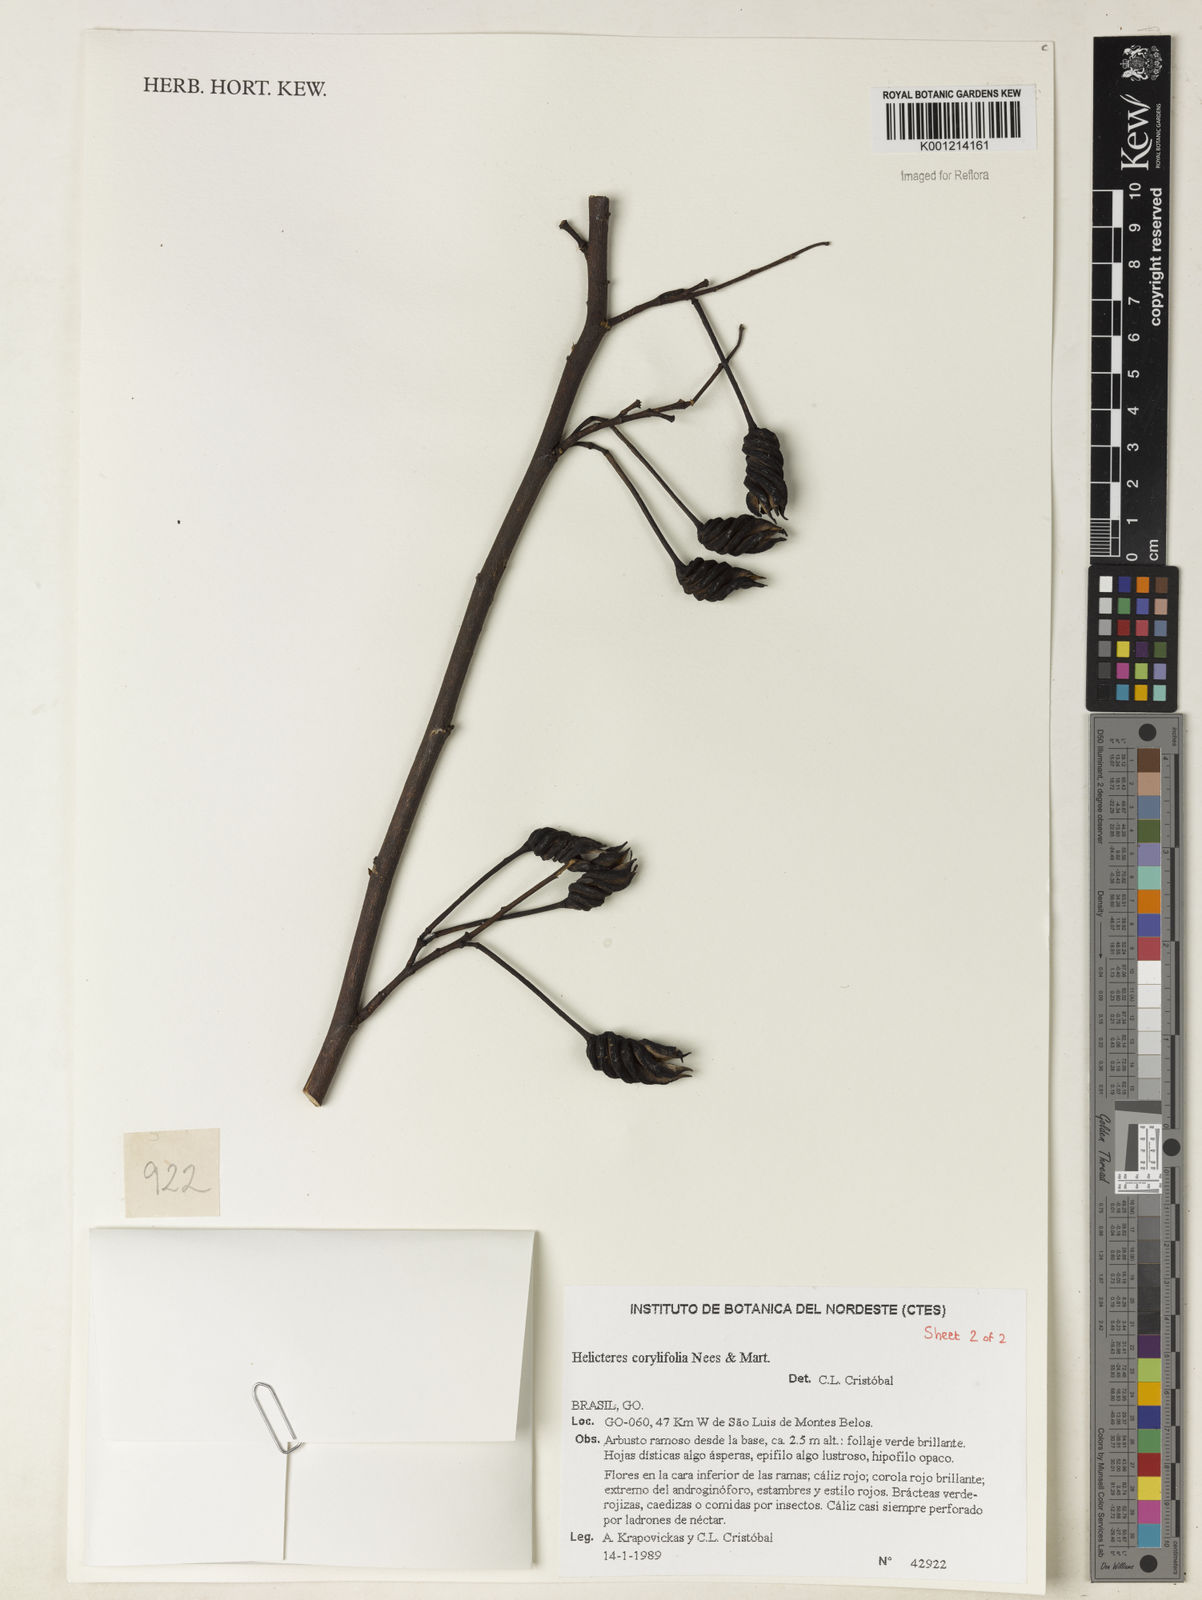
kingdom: Plantae
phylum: Tracheophyta
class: Magnoliopsida
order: Malvales
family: Malvaceae
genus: Helicteres
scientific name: Helicteres corylifolia
